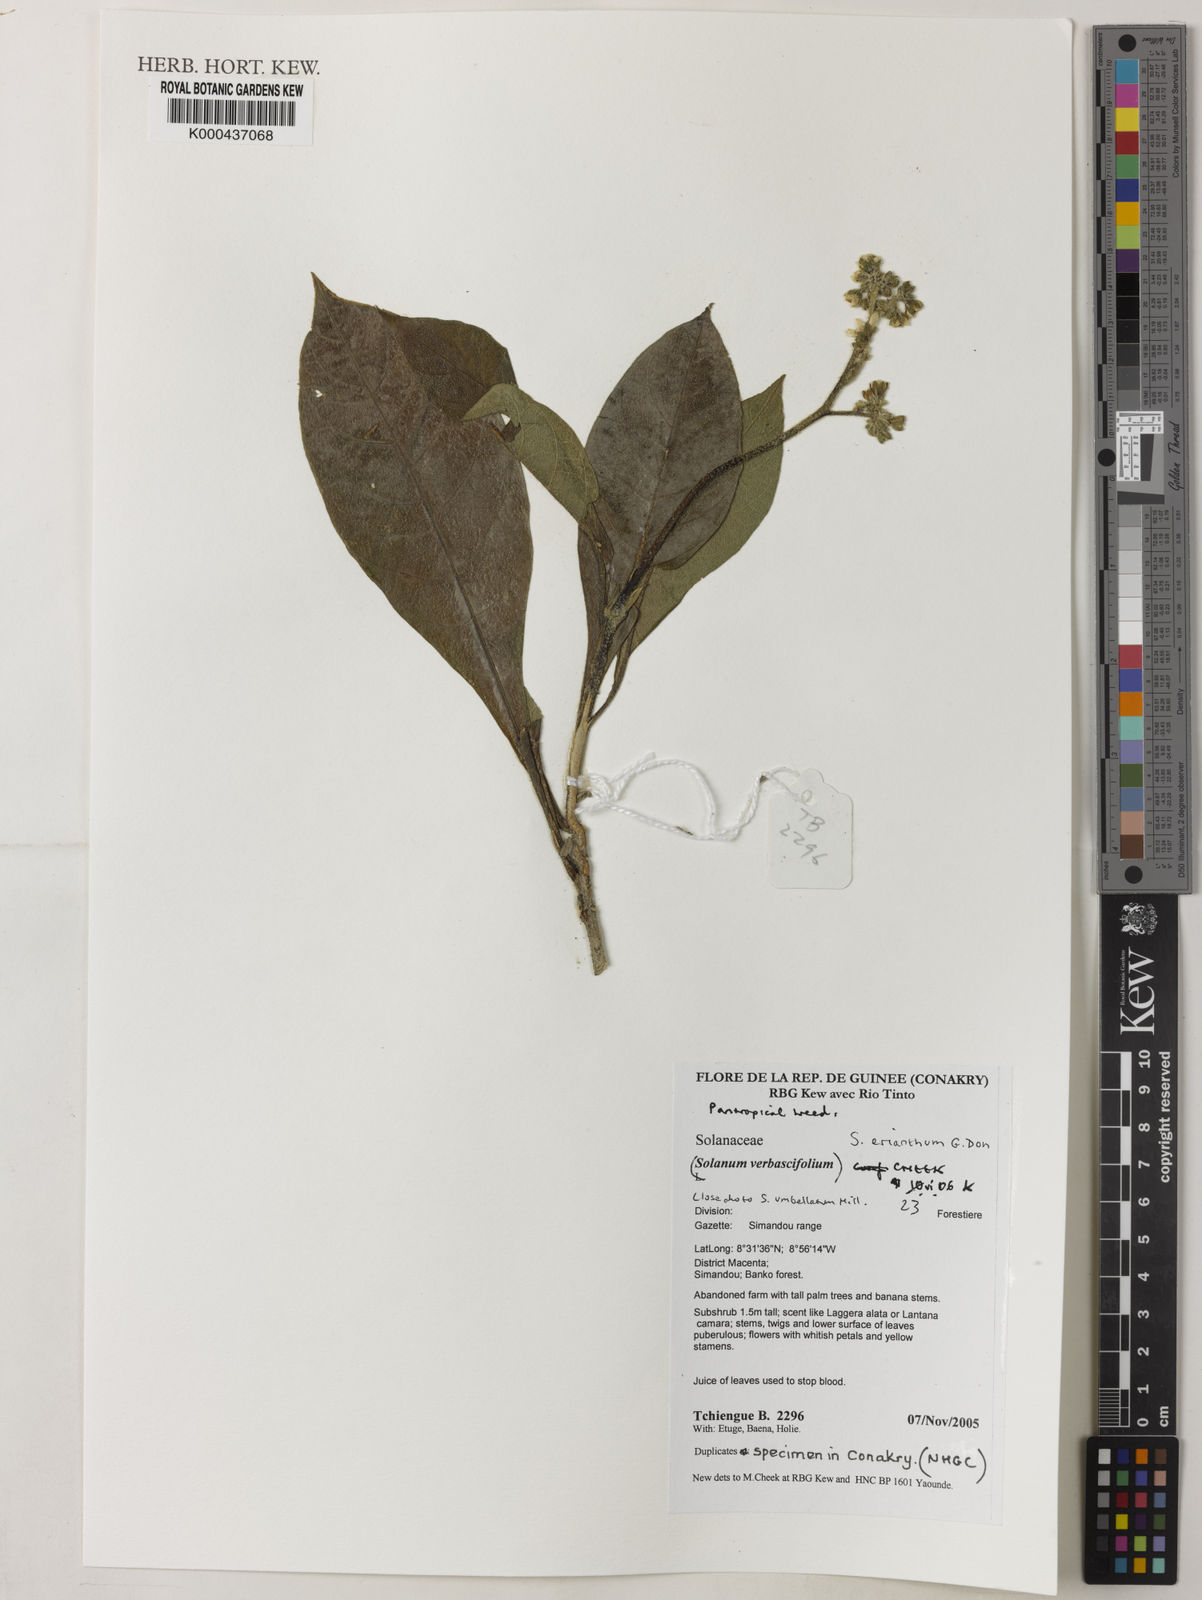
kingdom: Plantae
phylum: Tracheophyta
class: Magnoliopsida
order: Solanales
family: Solanaceae
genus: Solanum
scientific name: Solanum erianthum
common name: Tobacco-tree
